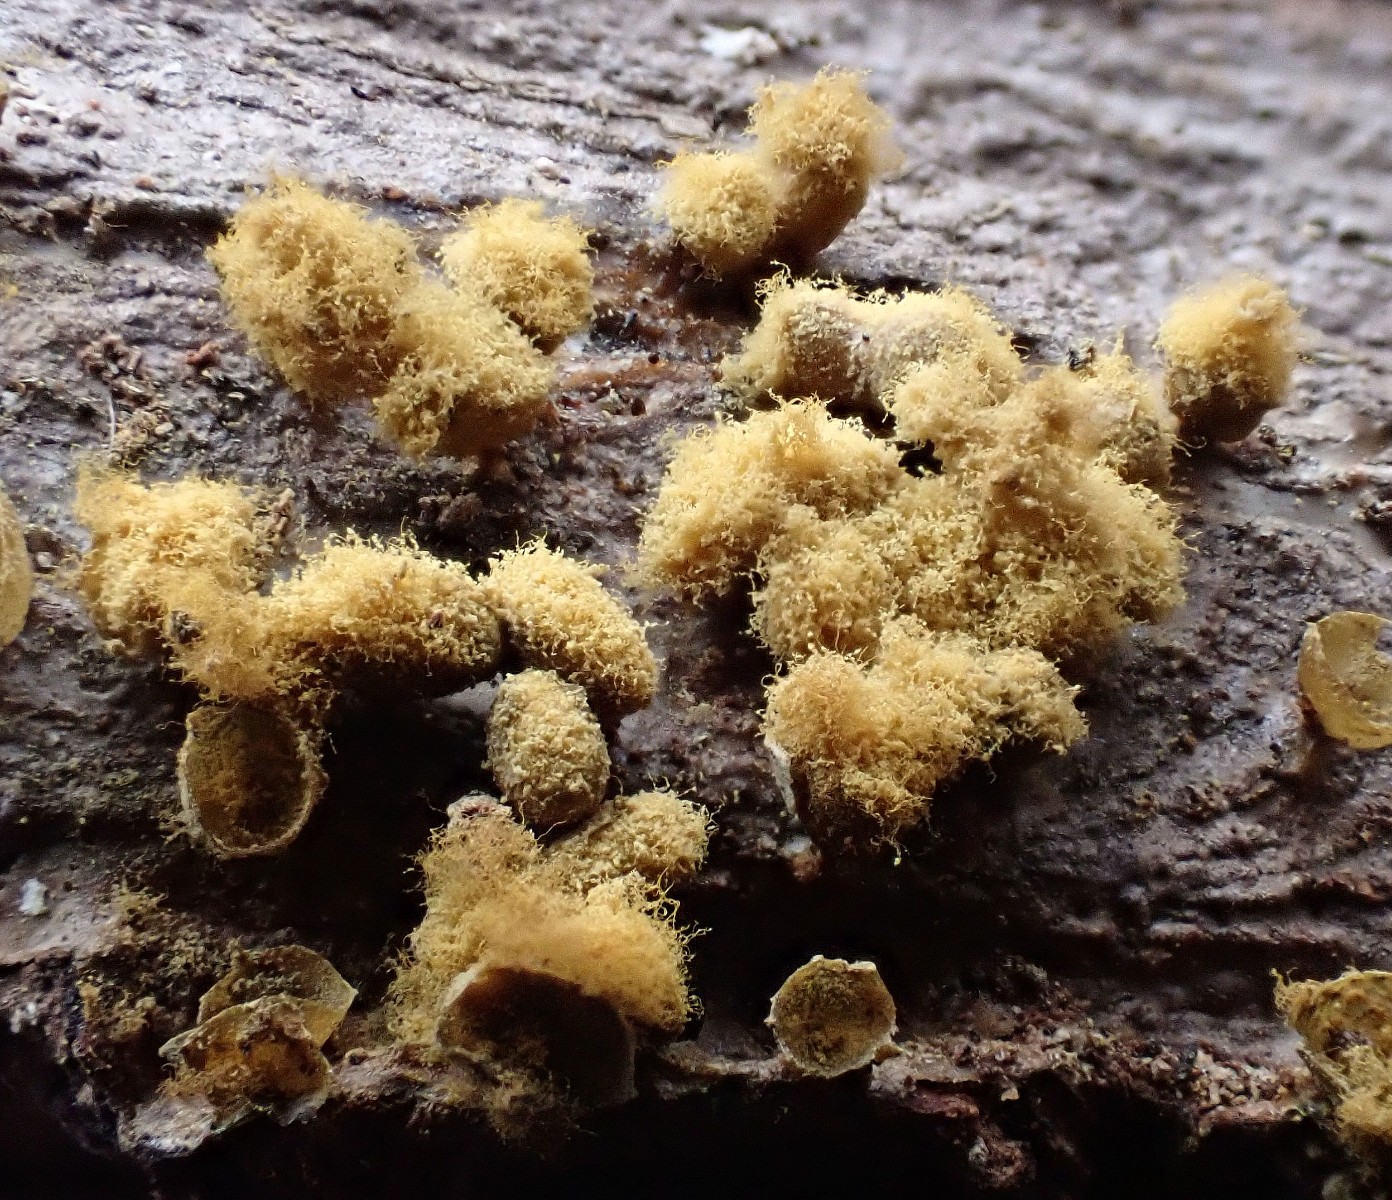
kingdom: Protozoa
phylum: Mycetozoa
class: Myxomycetes
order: Trichiales
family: Trichiaceae
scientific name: Trichiaceae
